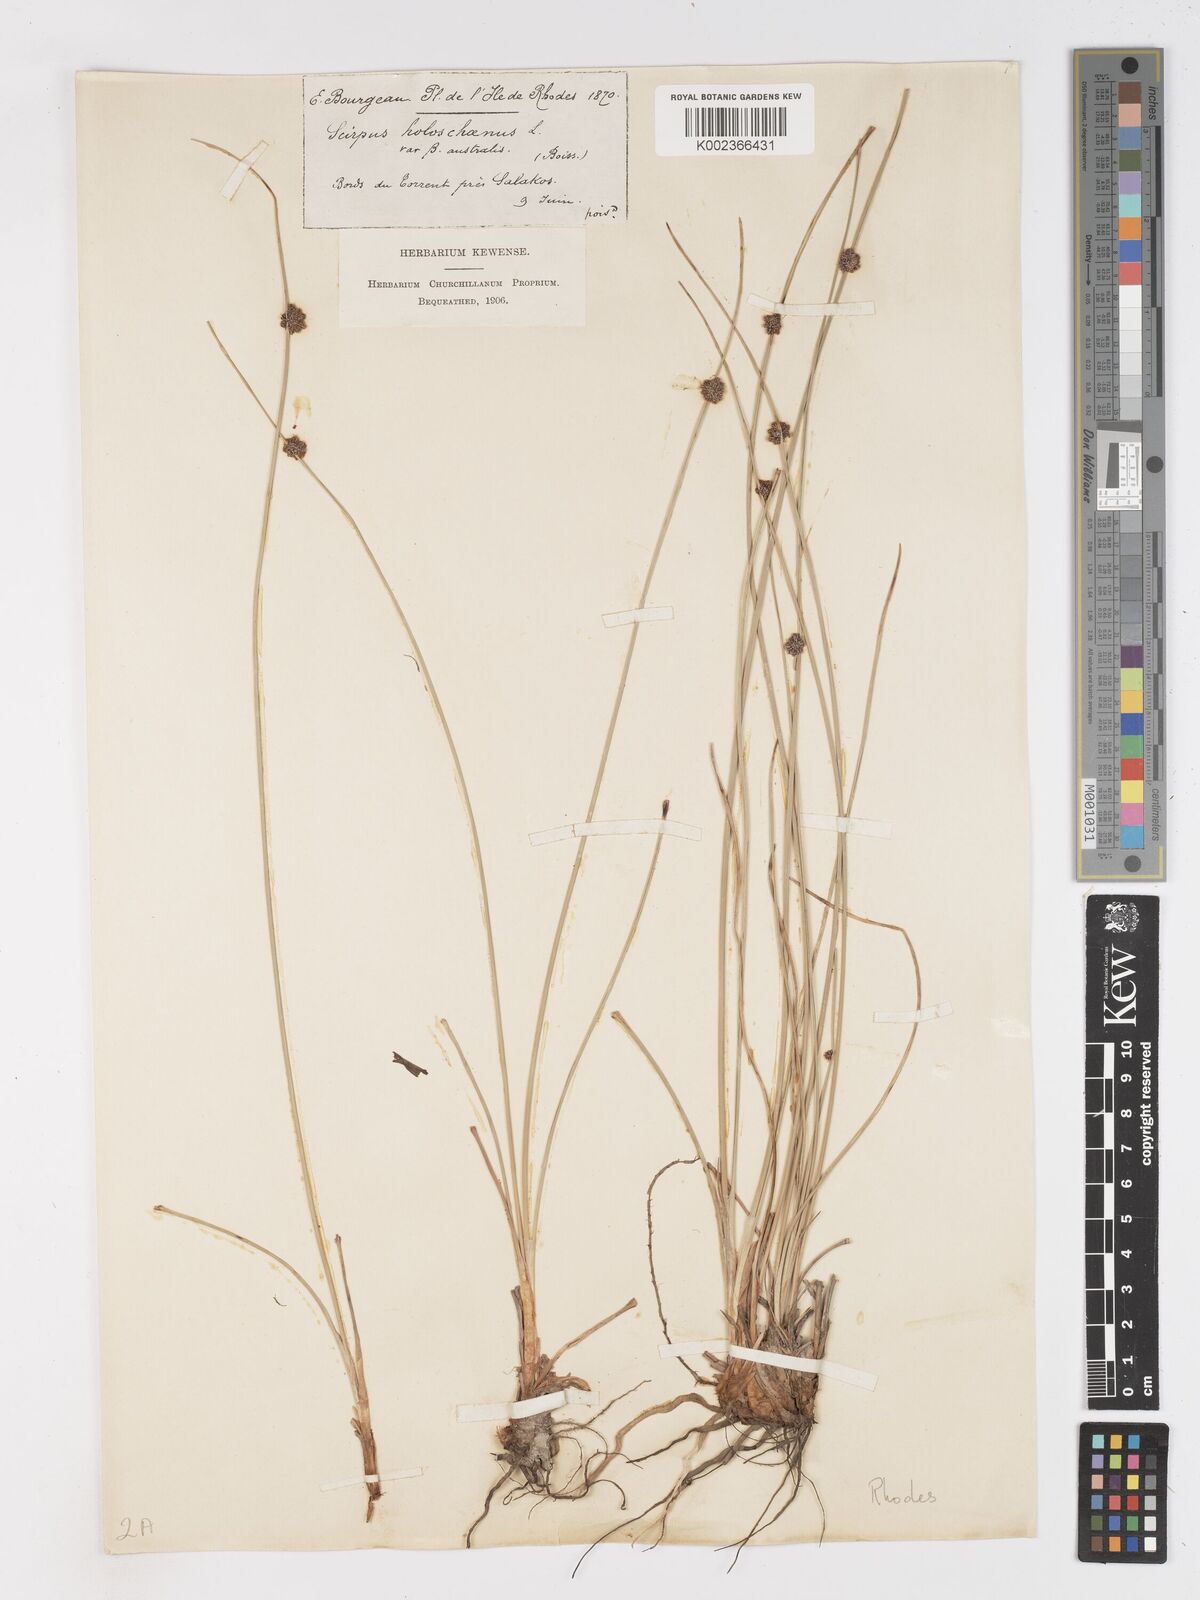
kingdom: Plantae
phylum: Tracheophyta
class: Liliopsida
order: Poales
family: Cyperaceae
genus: Scirpoides
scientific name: Scirpoides holoschoenus
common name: Round-headed club-rush
